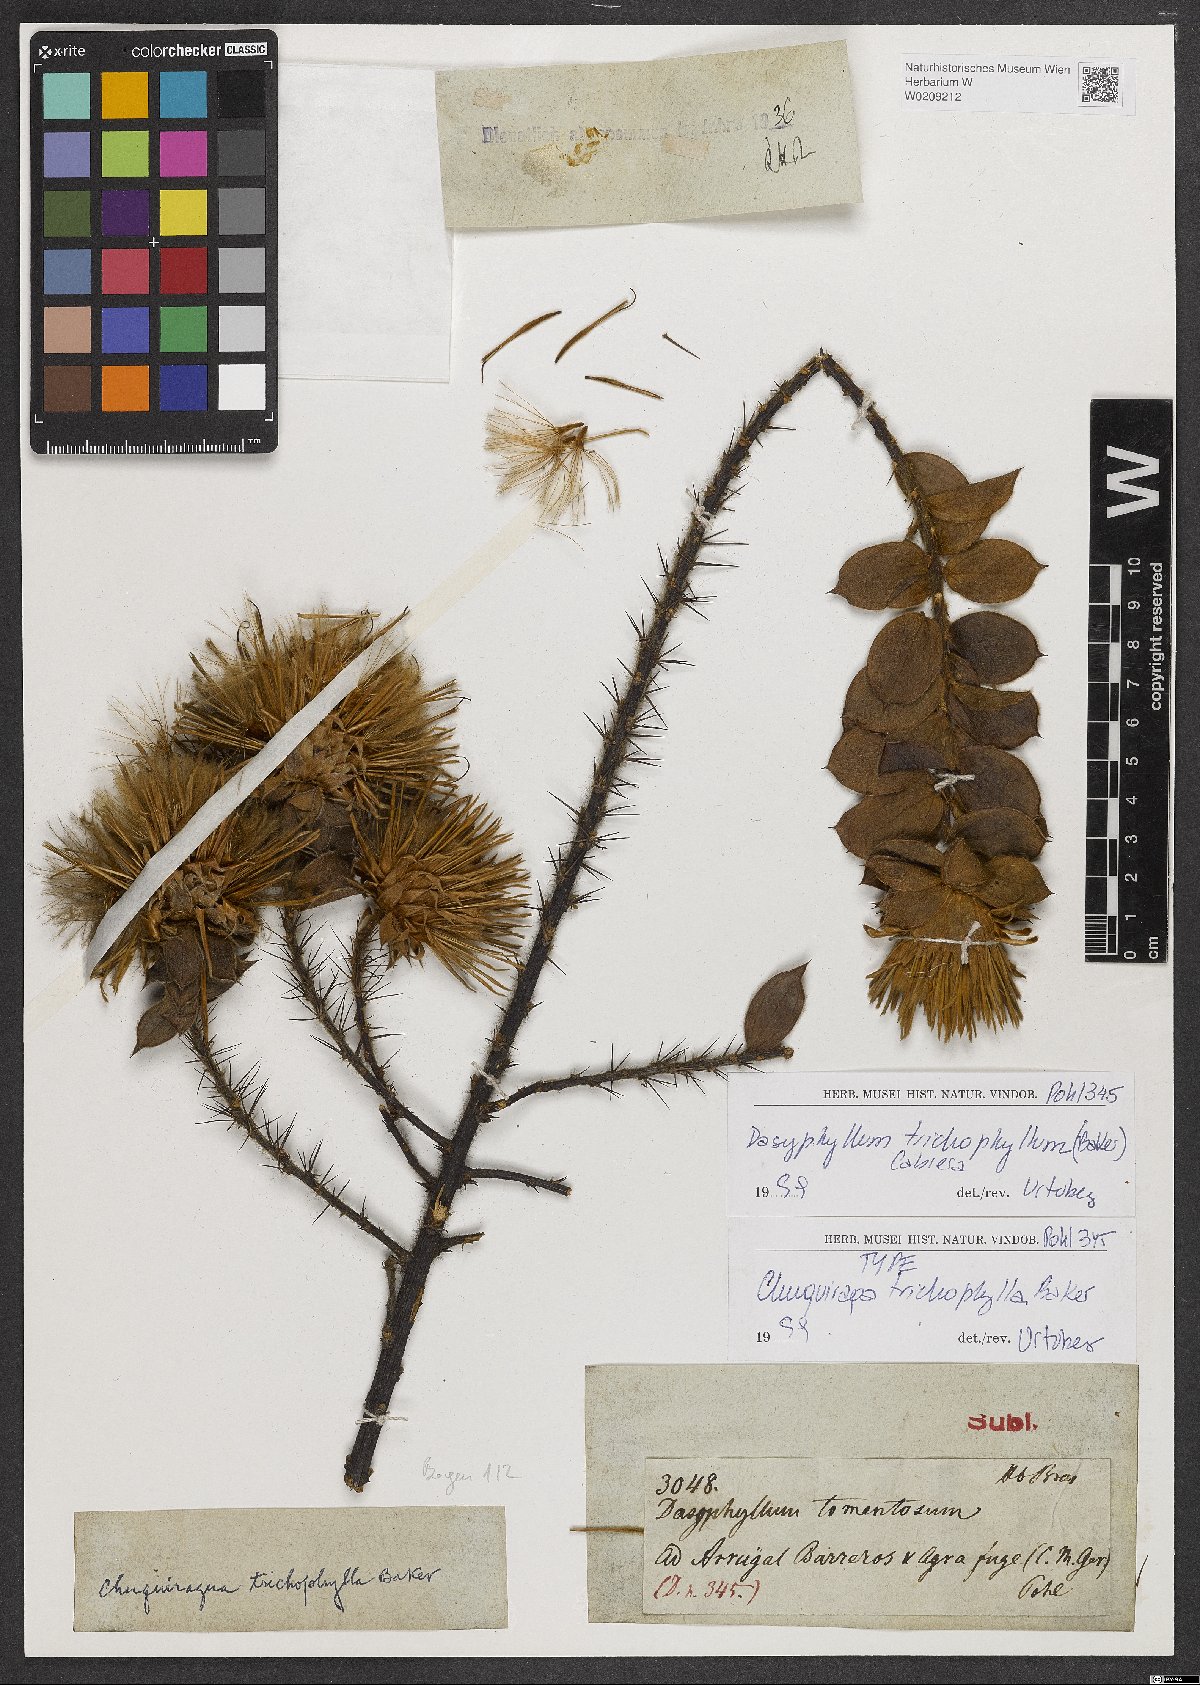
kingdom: Plantae
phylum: Tracheophyta
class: Magnoliopsida
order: Asterales
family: Asteraceae
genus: Dasyphyllum
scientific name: Dasyphyllum trichophyllum
